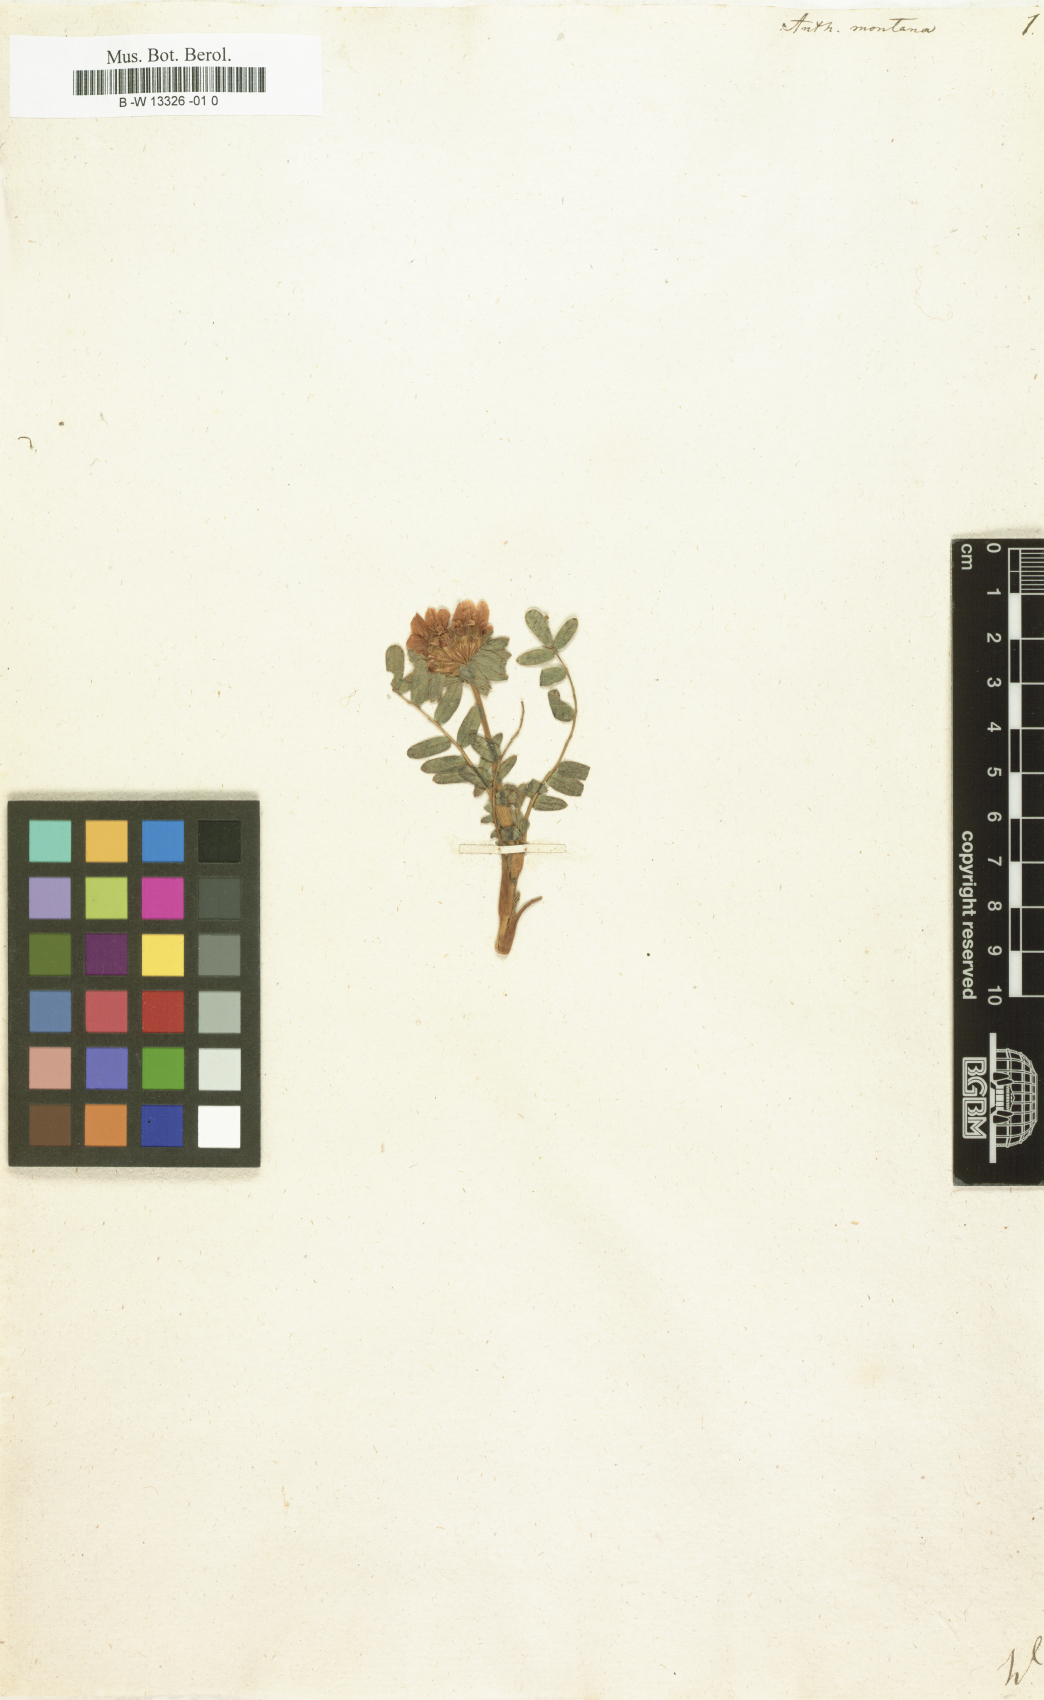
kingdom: Plantae
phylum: Tracheophyta
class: Magnoliopsida
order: Fabales
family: Fabaceae
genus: Anthyllis
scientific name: Anthyllis montana
